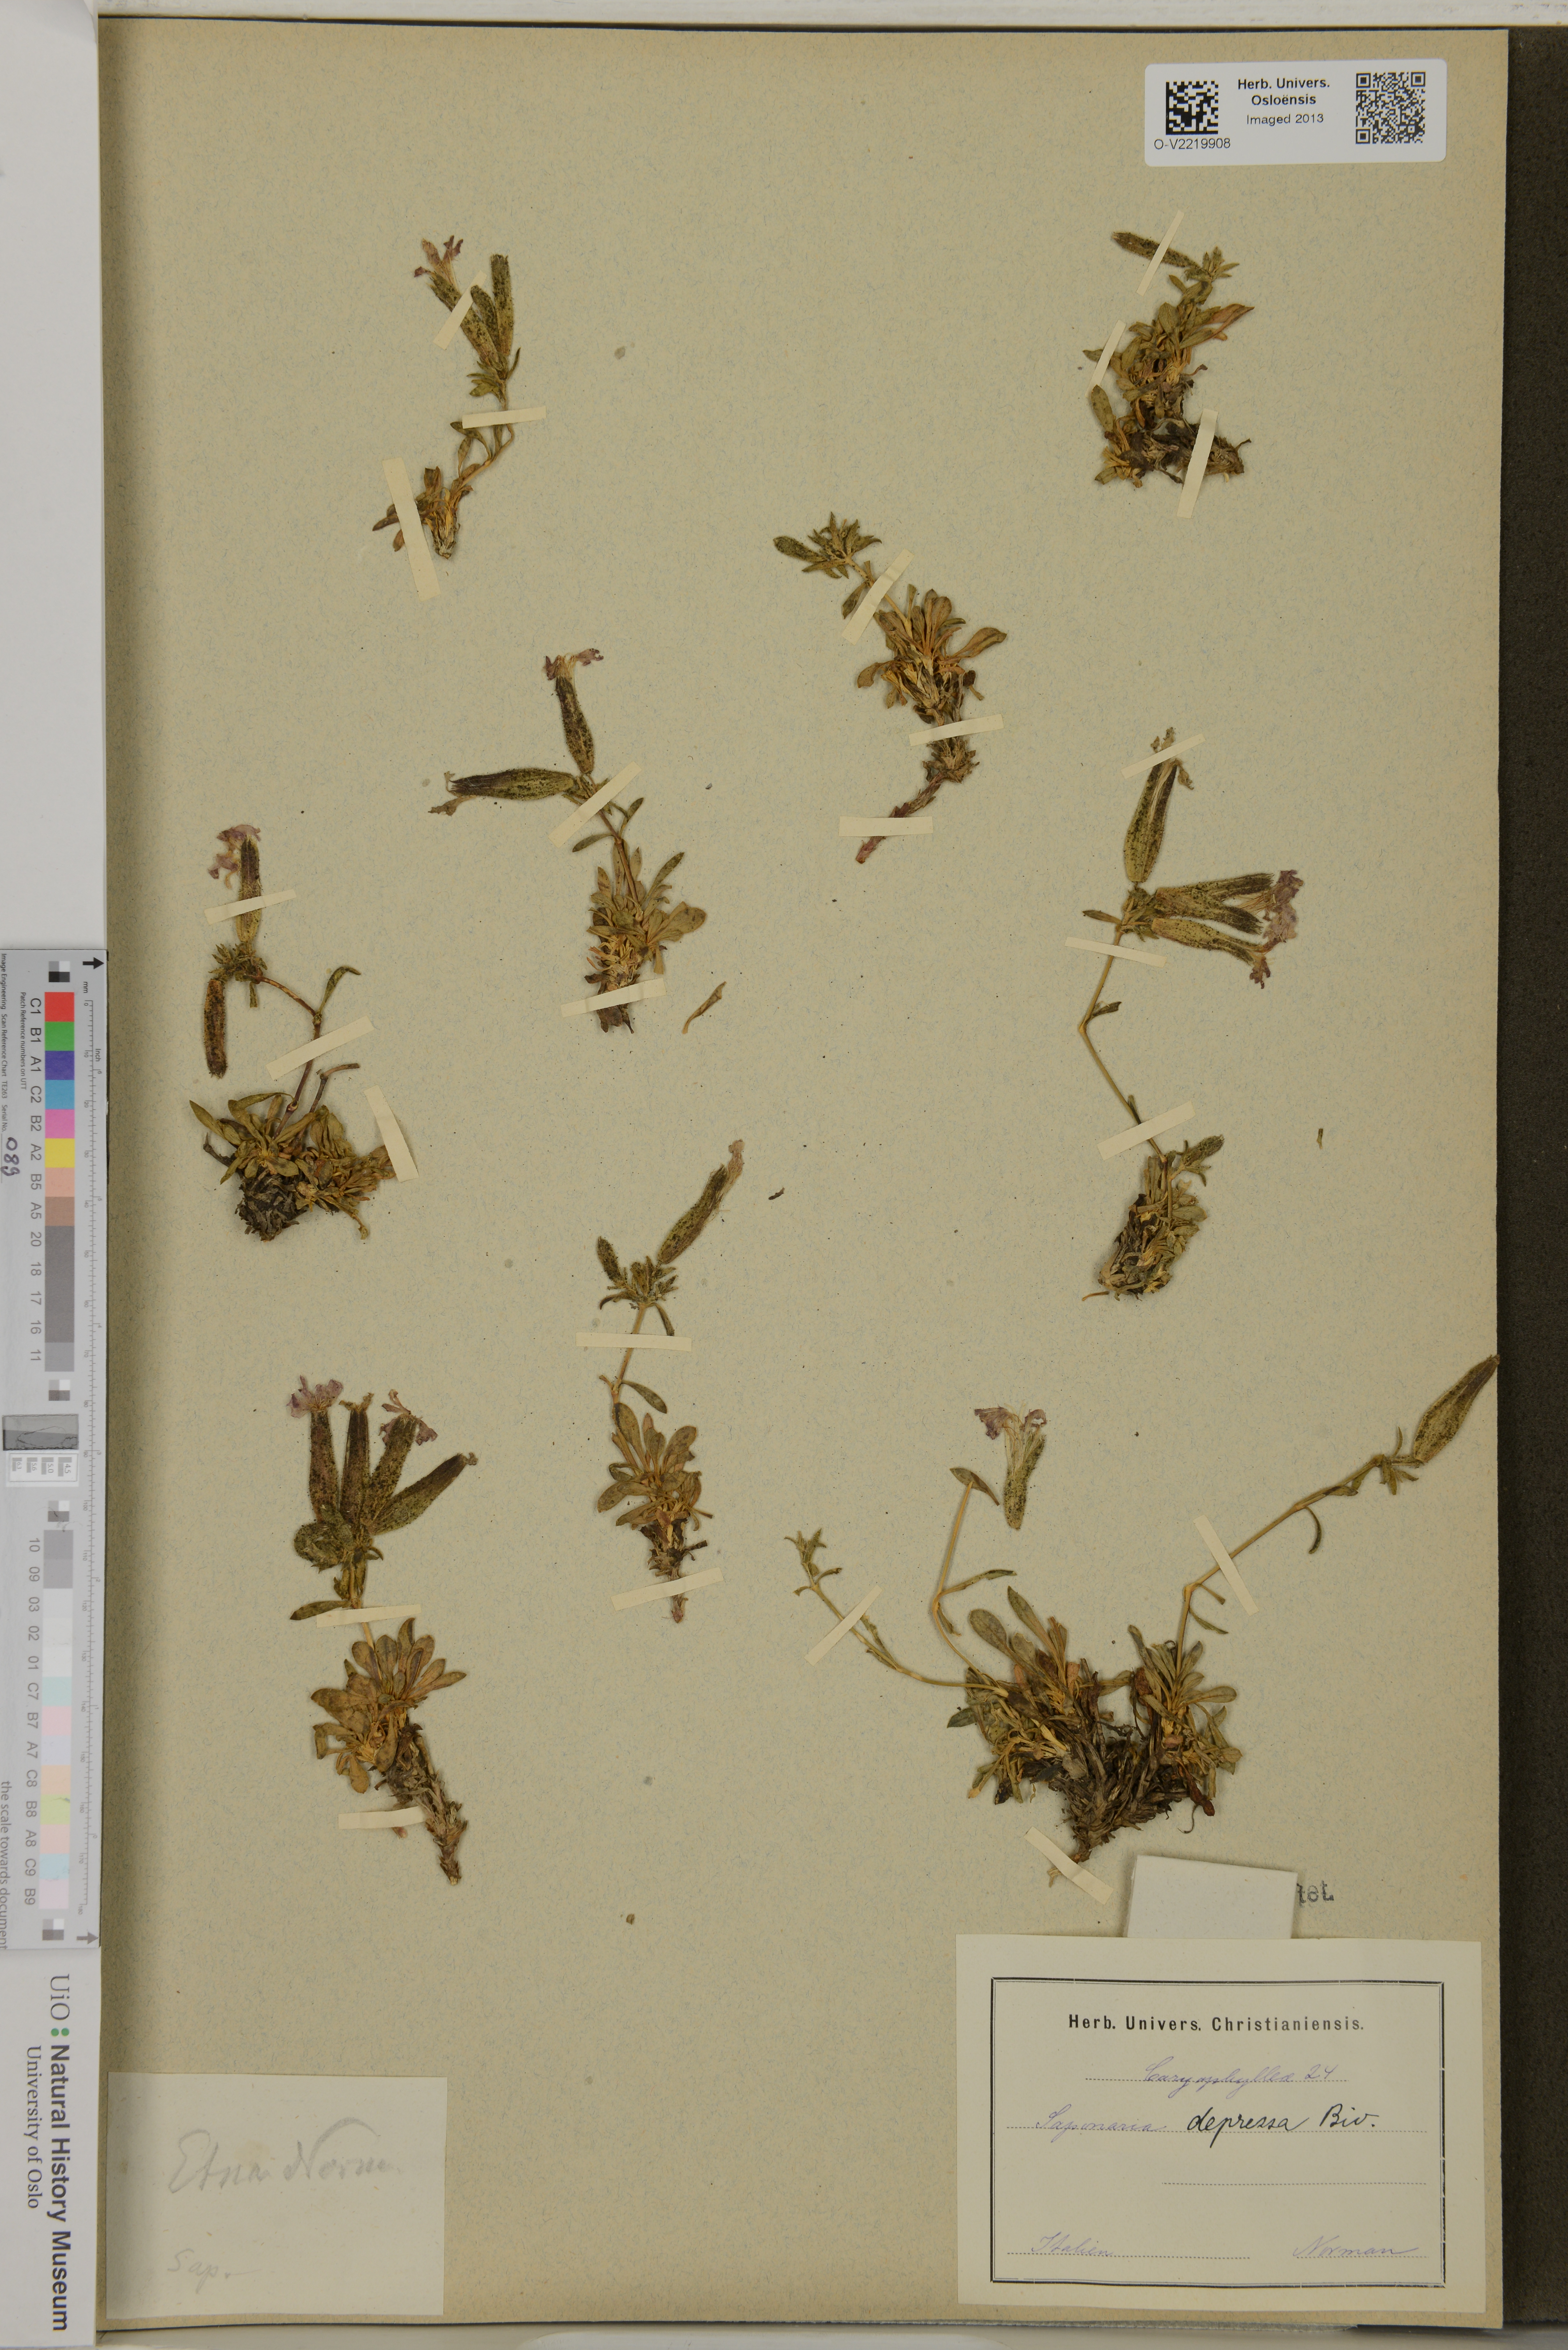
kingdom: Plantae
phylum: Tracheophyta
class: Magnoliopsida
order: Caryophyllales
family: Caryophyllaceae
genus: Saponaria
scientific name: Saponaria sicula
